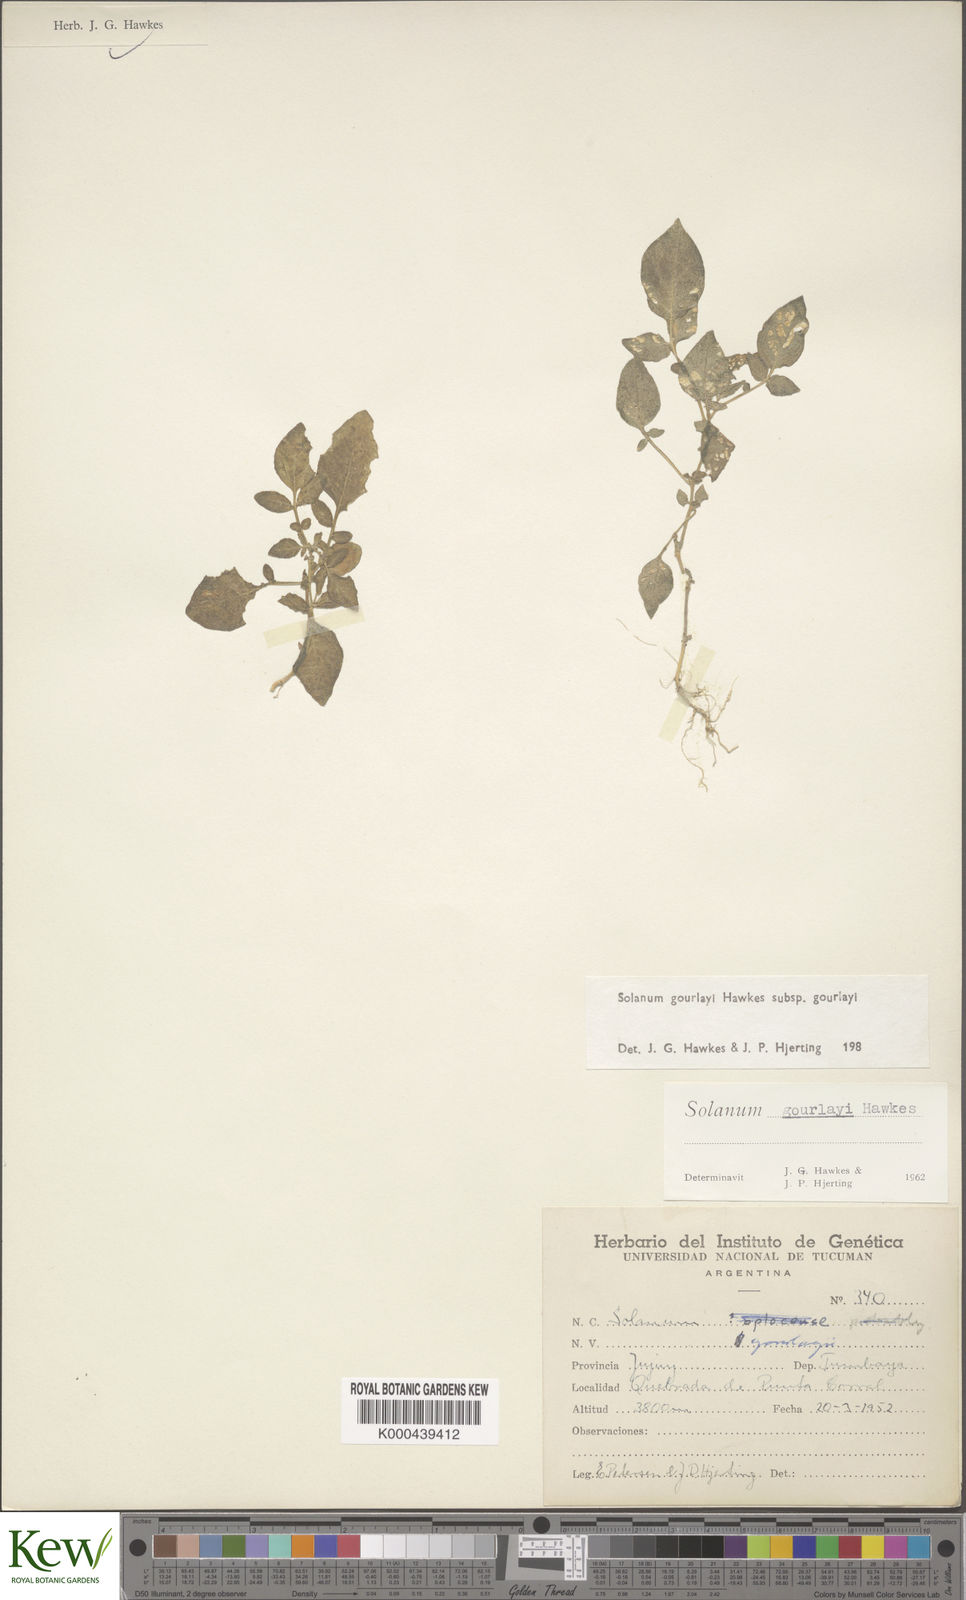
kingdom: Plantae
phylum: Tracheophyta
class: Magnoliopsida
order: Solanales
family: Solanaceae
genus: Solanum
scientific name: Solanum brevicaule
